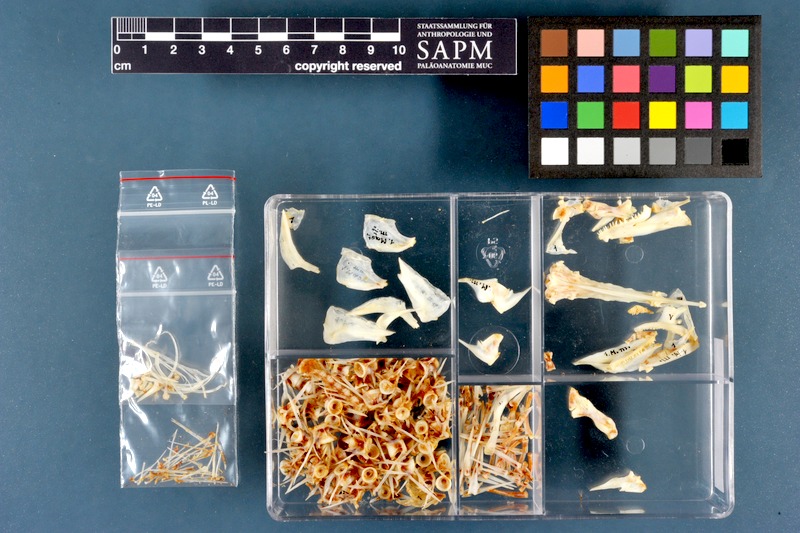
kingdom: Animalia
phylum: Chordata
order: Synbranchiformes
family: Mastacembelidae
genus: Mastacembelus
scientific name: Mastacembelus mastacembelus
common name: Mesopotamian spiny eel
